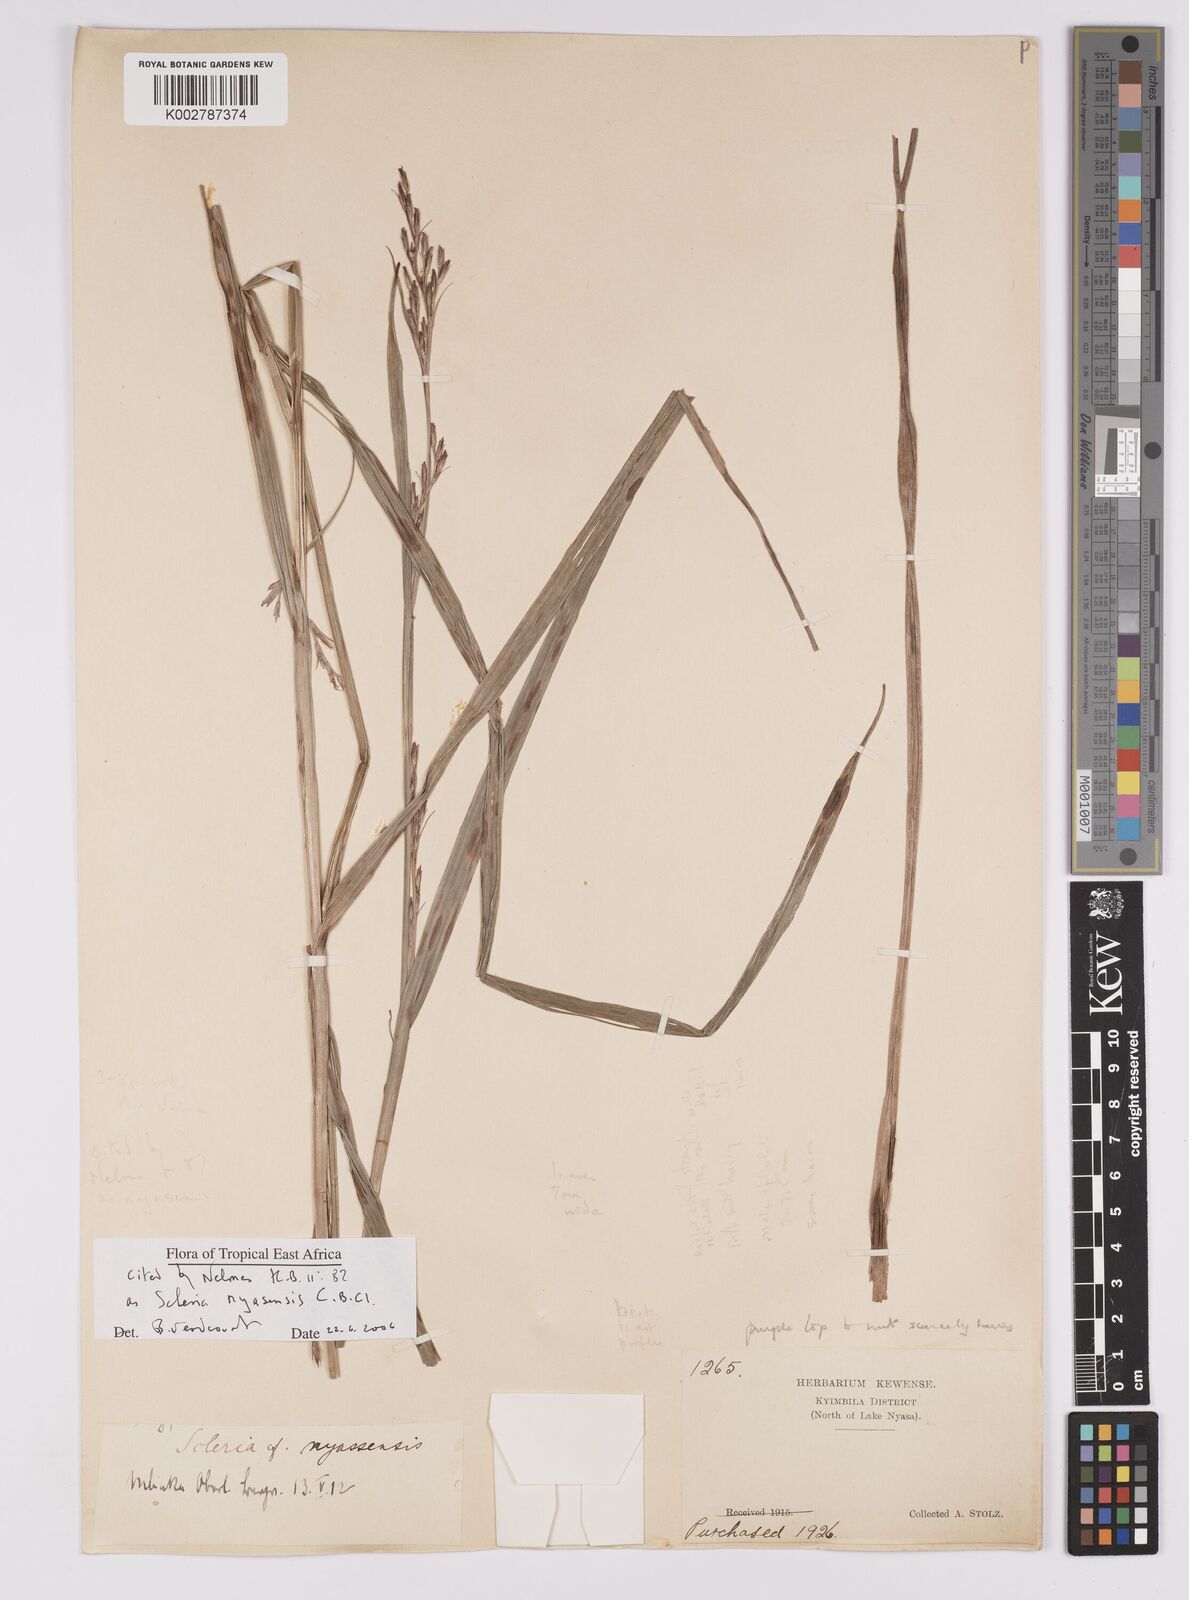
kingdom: Plantae
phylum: Tracheophyta
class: Liliopsida
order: Poales
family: Cyperaceae
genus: Scleria
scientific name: Scleria nyasensis
